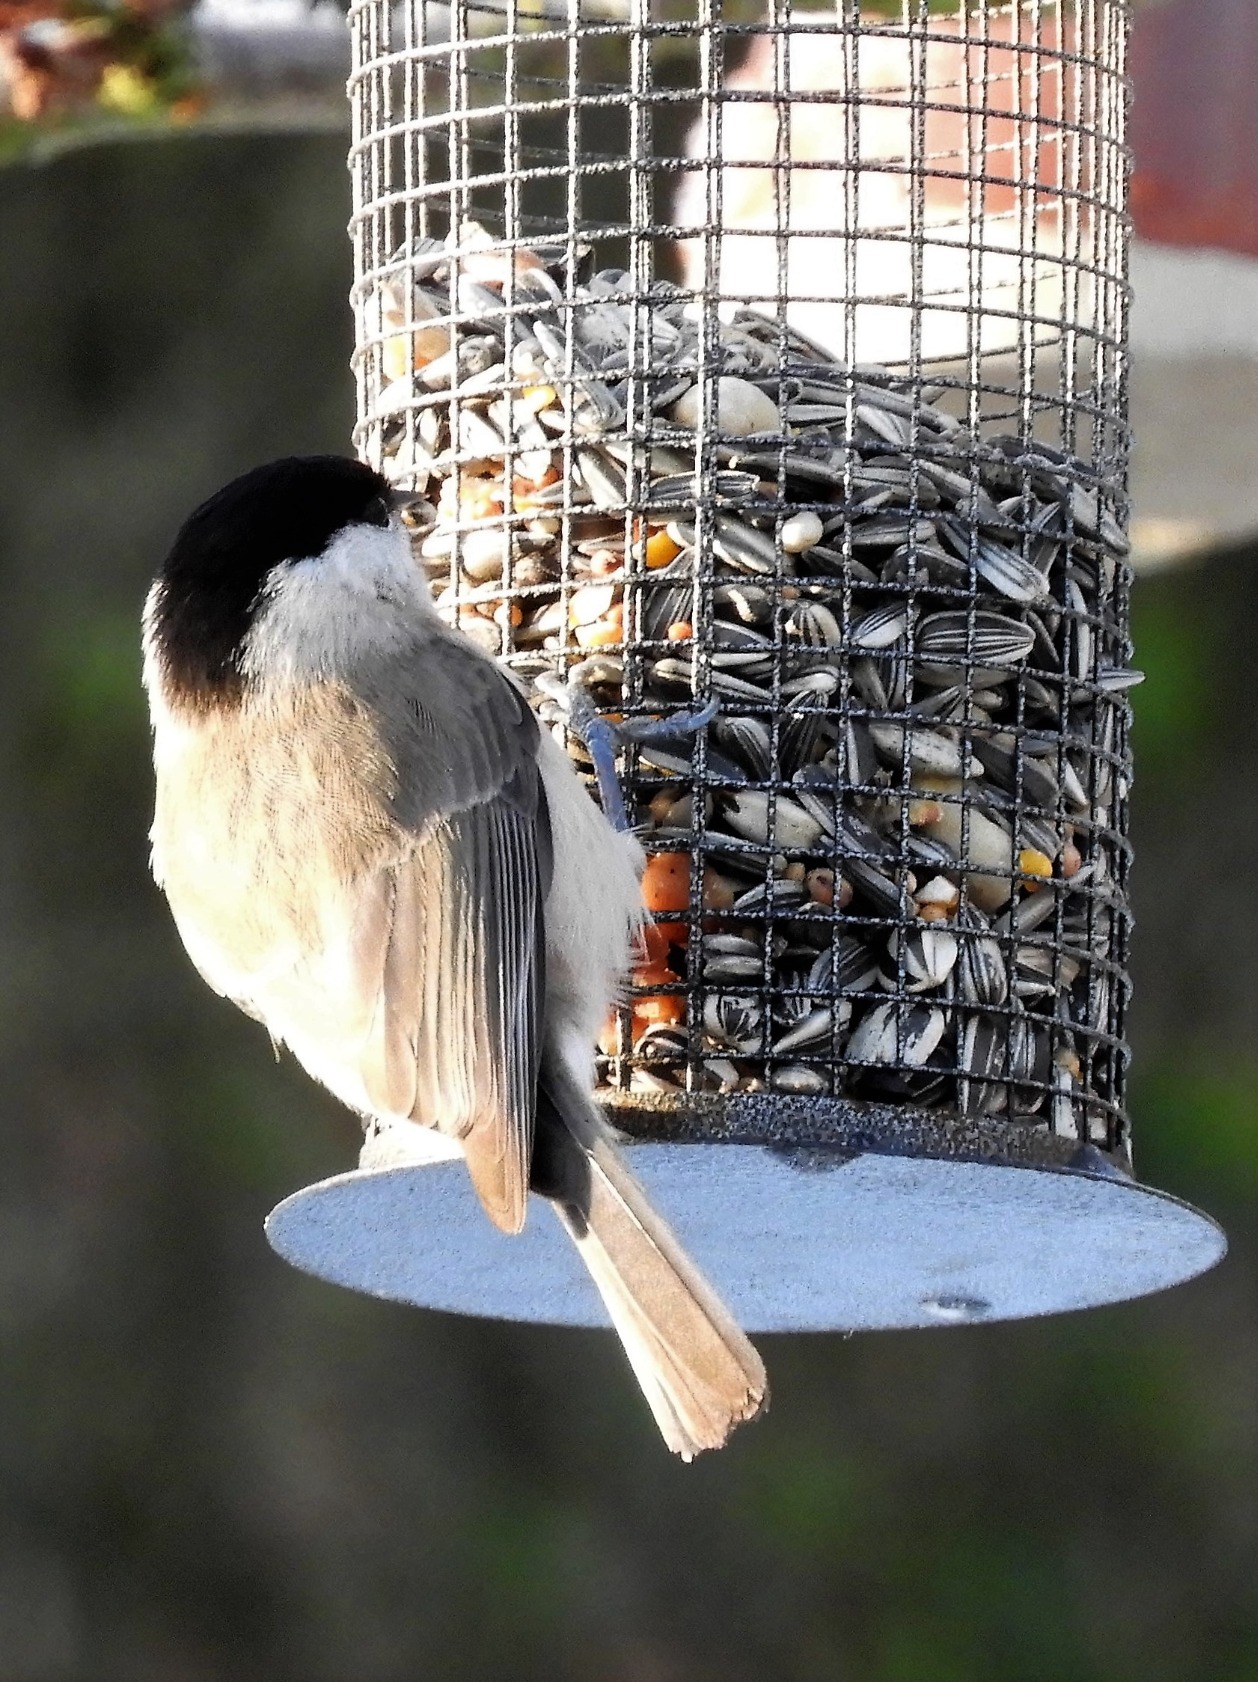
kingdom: Animalia
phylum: Chordata
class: Aves
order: Passeriformes
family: Paridae
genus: Poecile
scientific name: Poecile palustris
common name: Sumpmejse
